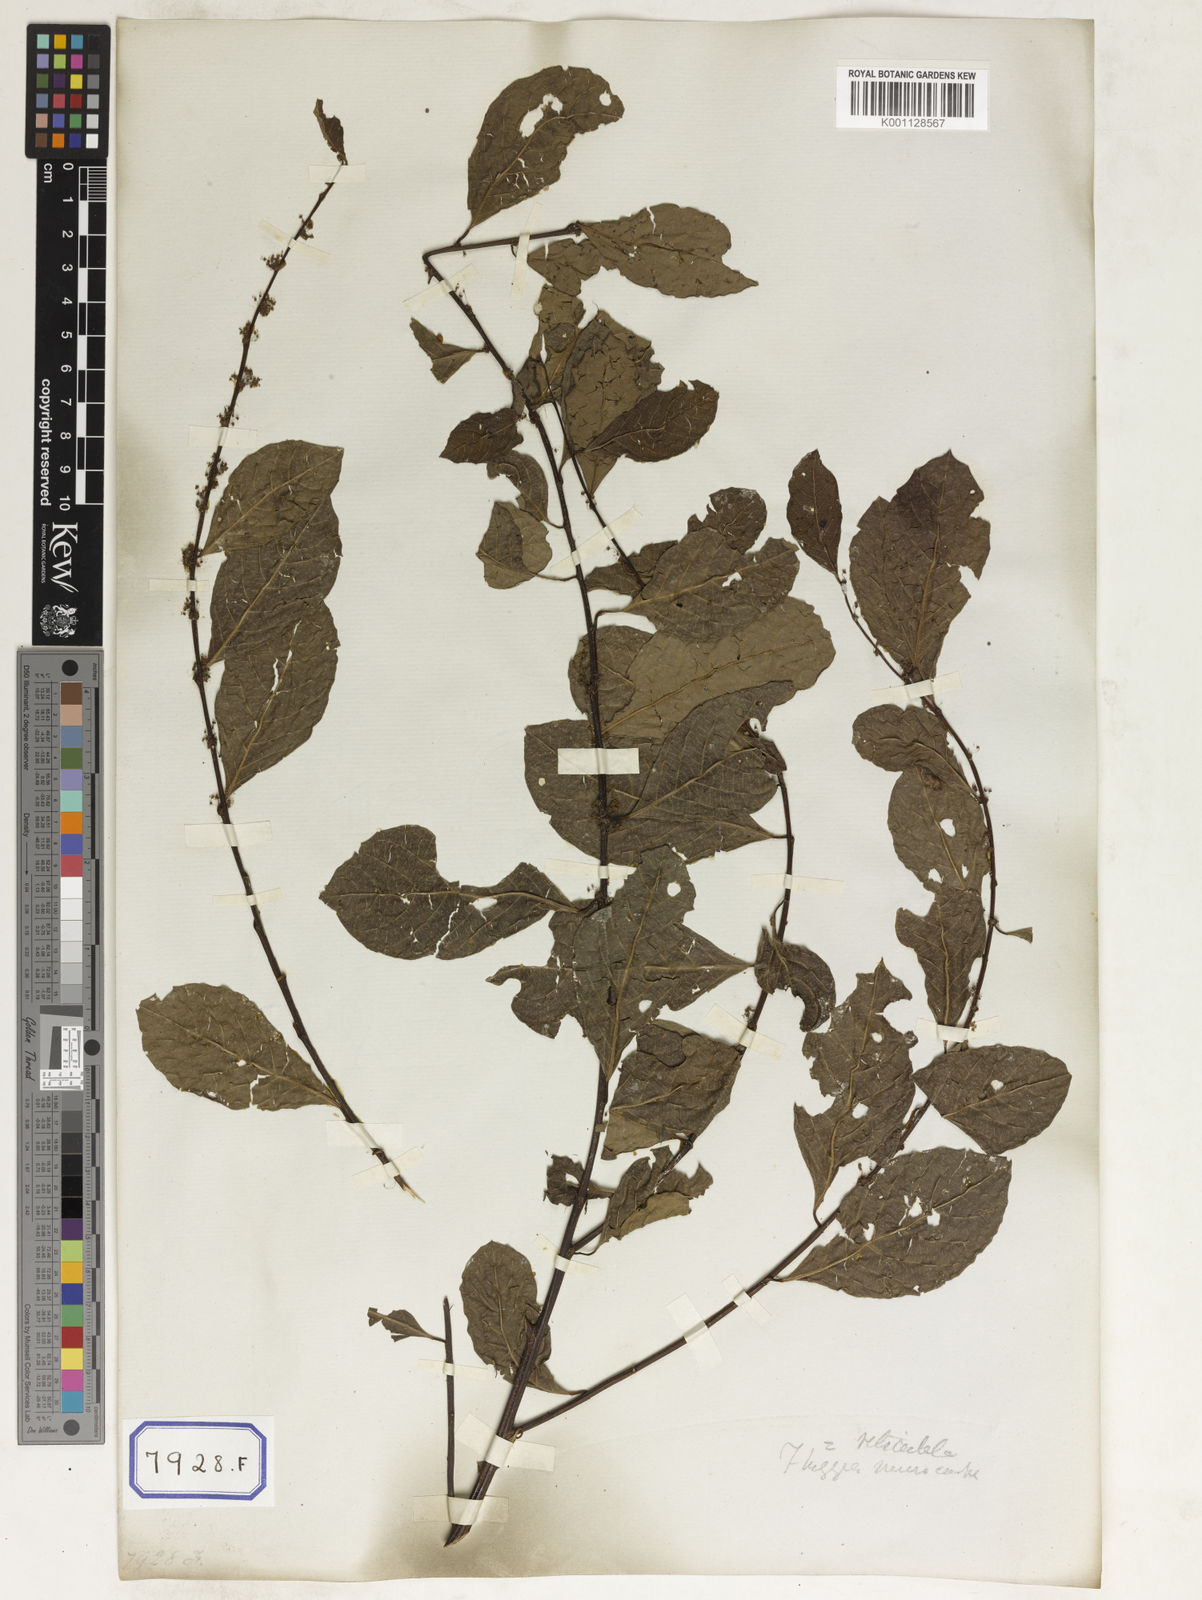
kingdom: Plantae
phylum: Tracheophyta
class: Magnoliopsida
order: Malpighiales
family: Euphorbiaceae
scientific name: Euphorbiaceae
